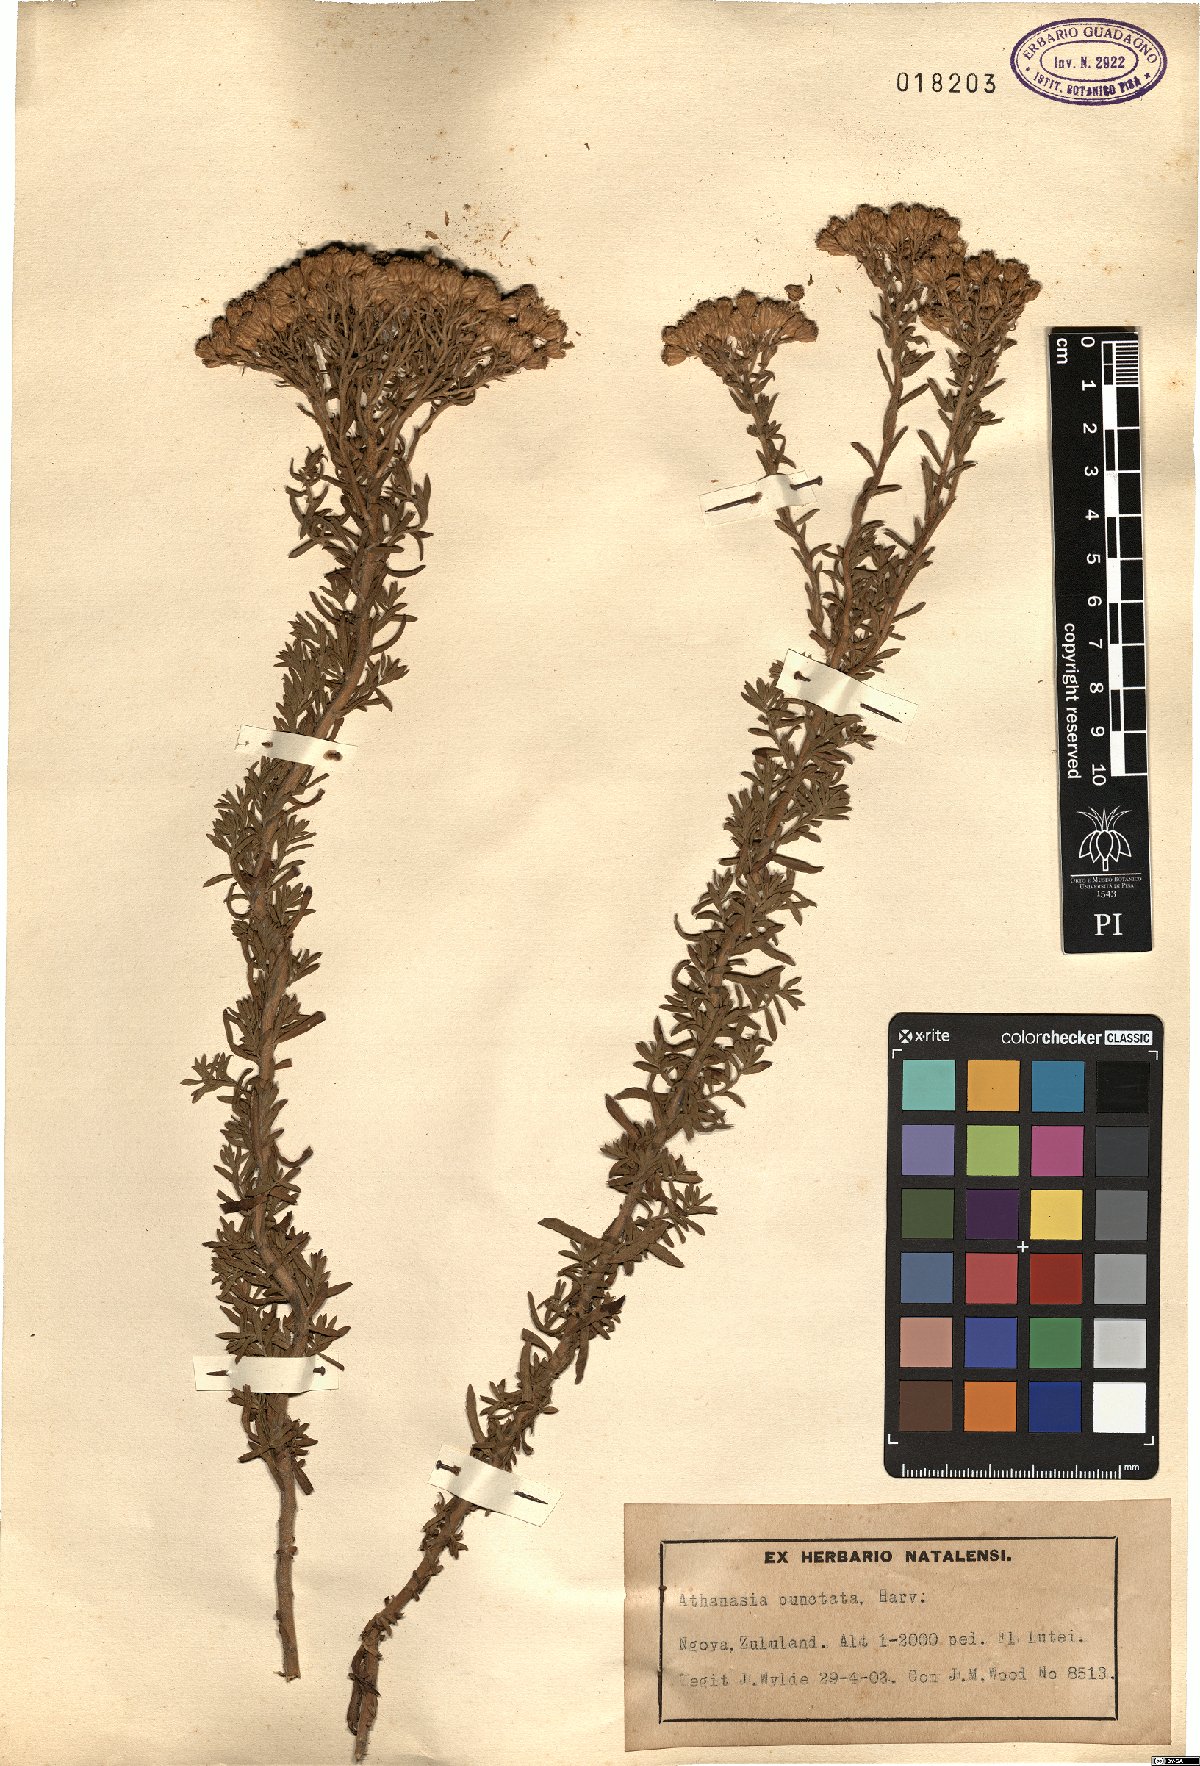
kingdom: Plantae
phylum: Tracheophyta
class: Magnoliopsida
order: Asterales
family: Asteraceae
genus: Inulanthera
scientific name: Inulanthera dregeana
